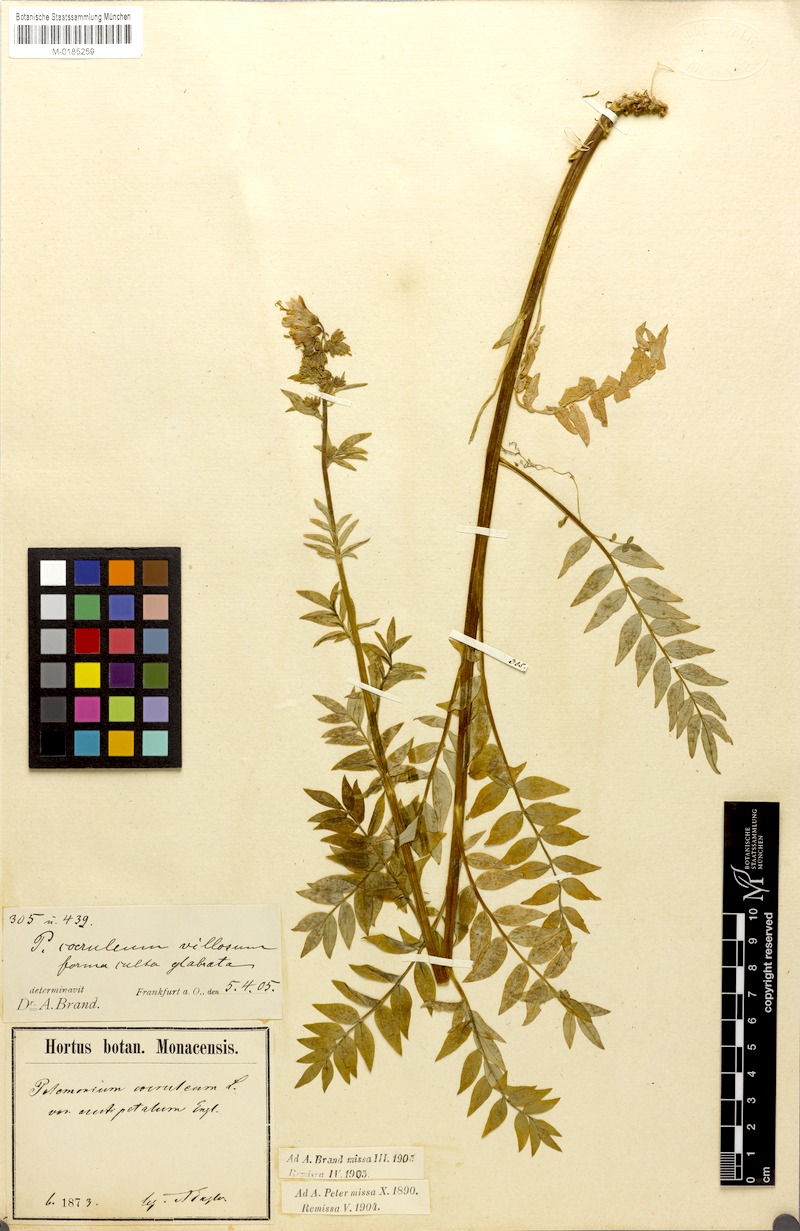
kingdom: Plantae
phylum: Tracheophyta
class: Magnoliopsida
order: Ericales
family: Polemoniaceae
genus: Polemonium
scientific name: Polemonium villosum
